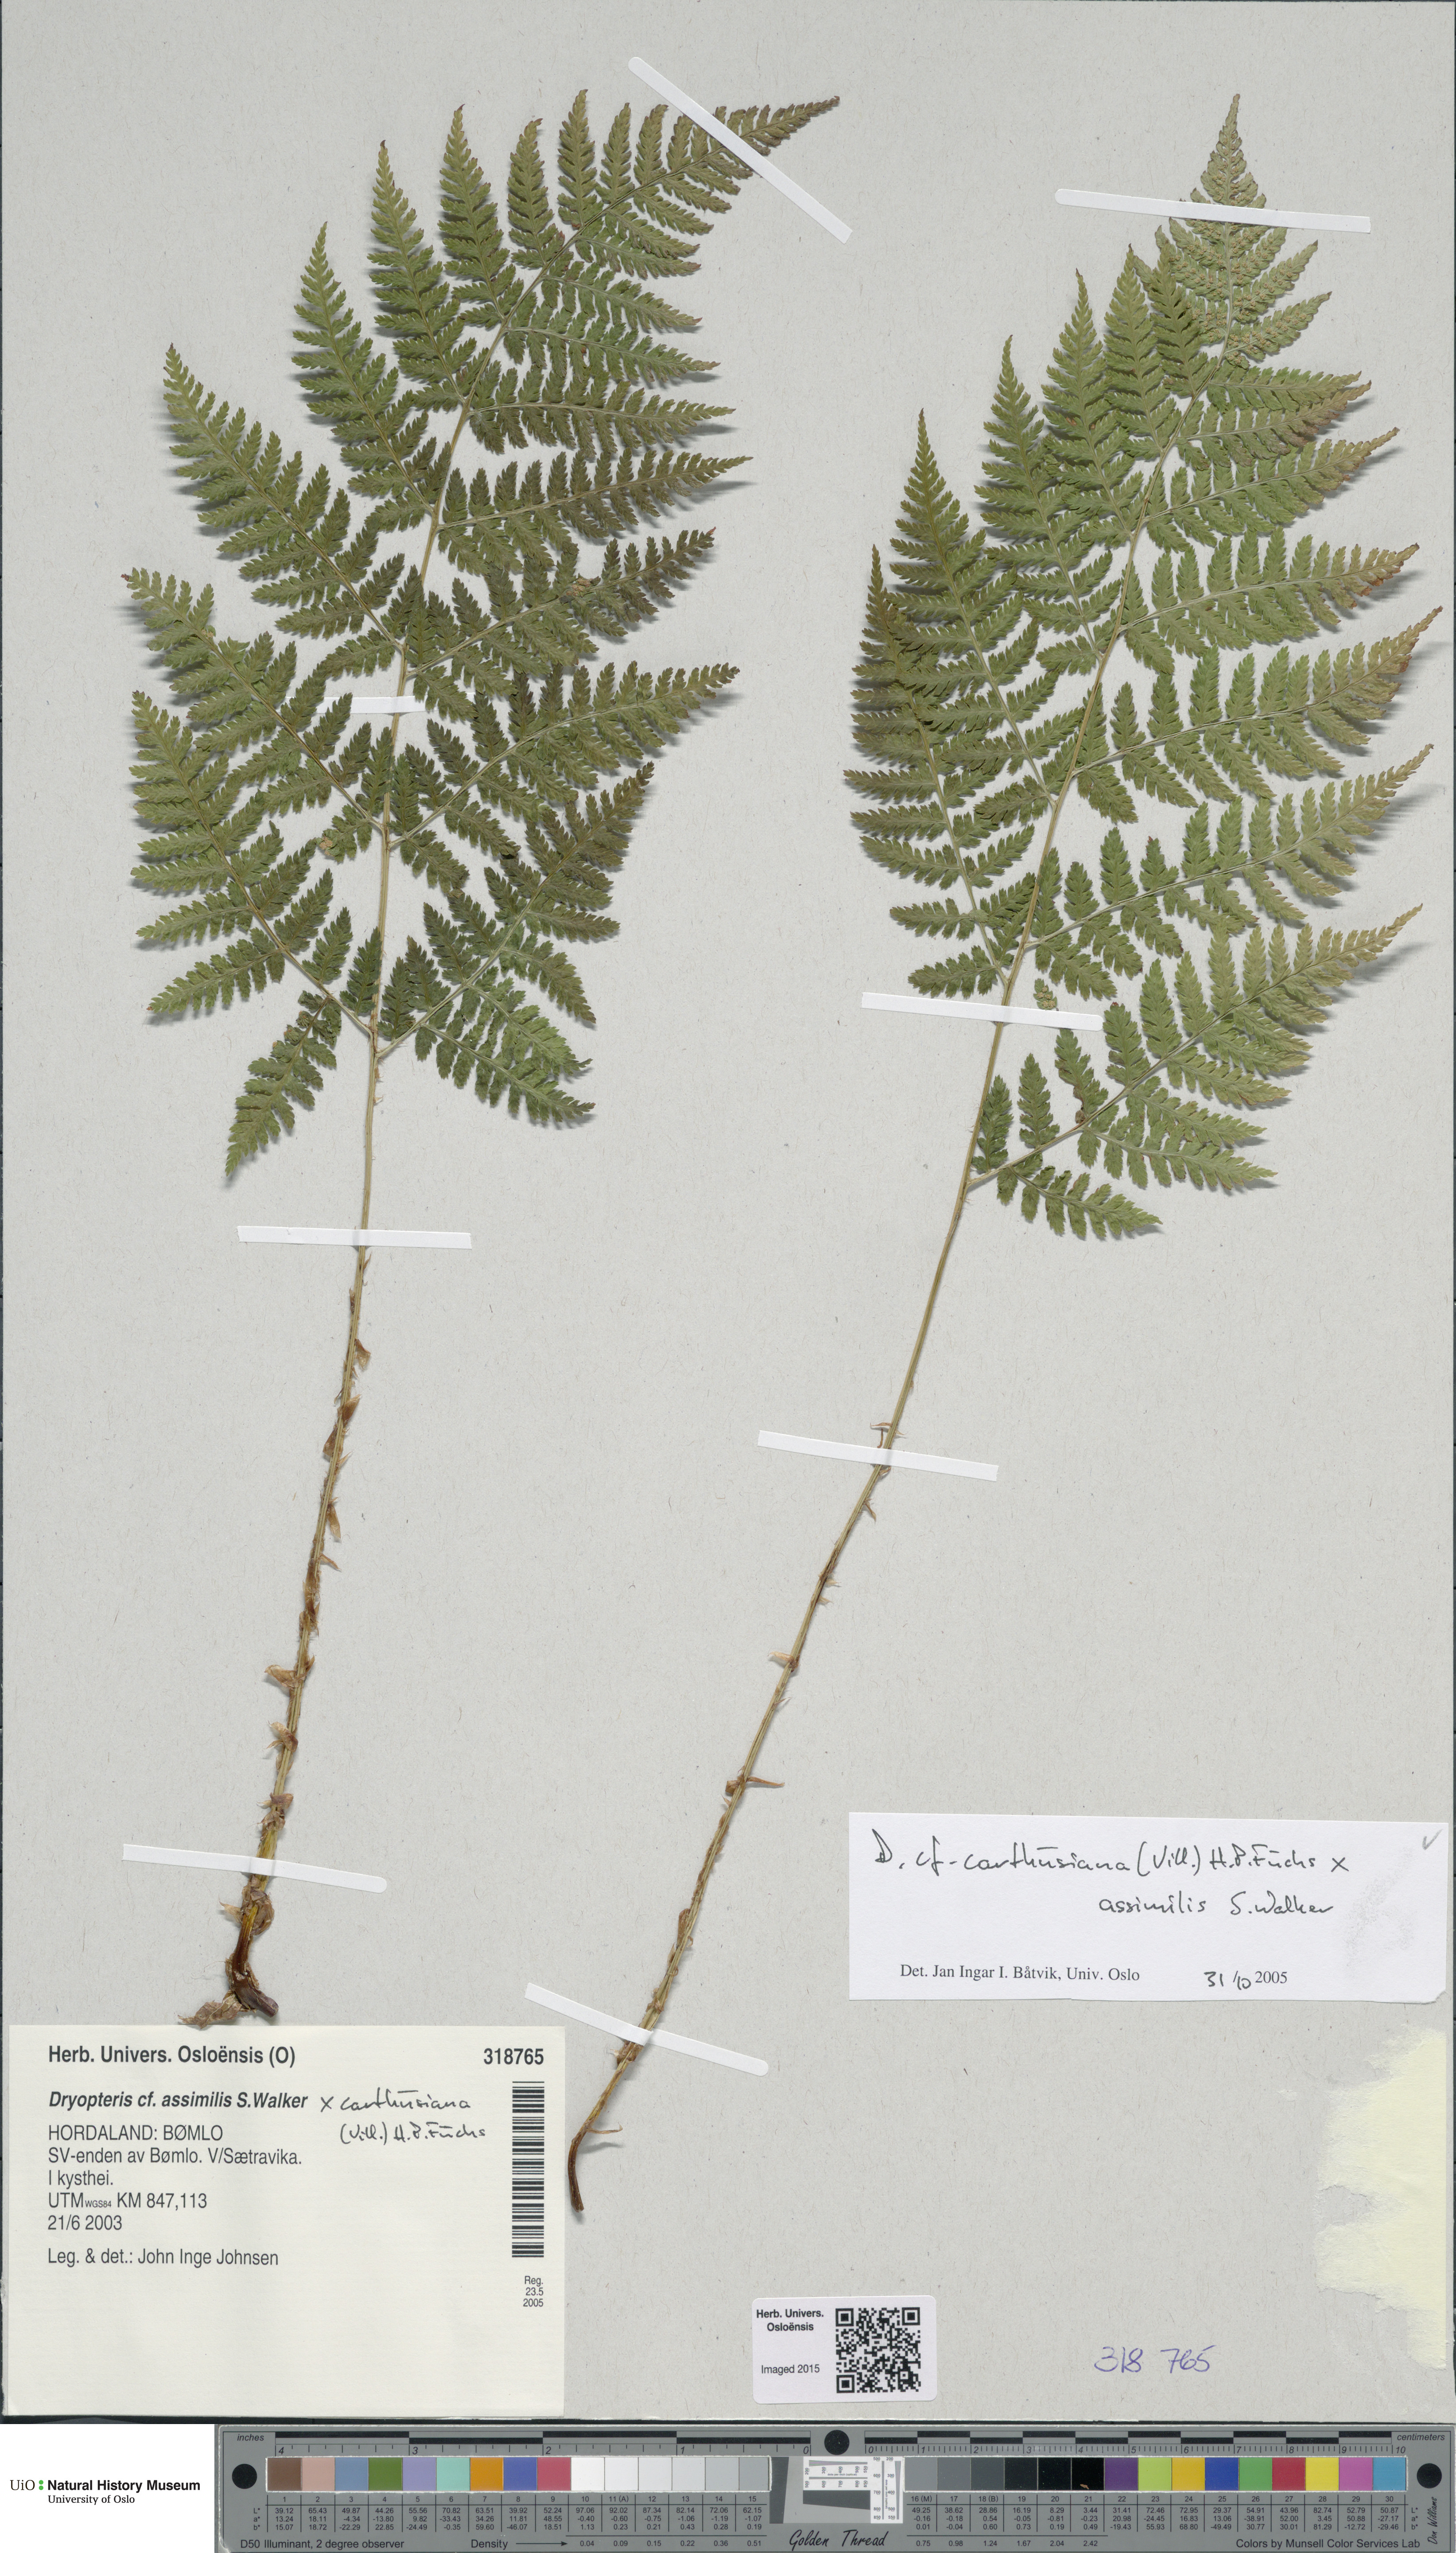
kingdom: Plantae
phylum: Tracheophyta
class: Polypodiopsida
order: Polypodiales
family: Dryopteridaceae
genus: Dryopteris
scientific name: Dryopteris
